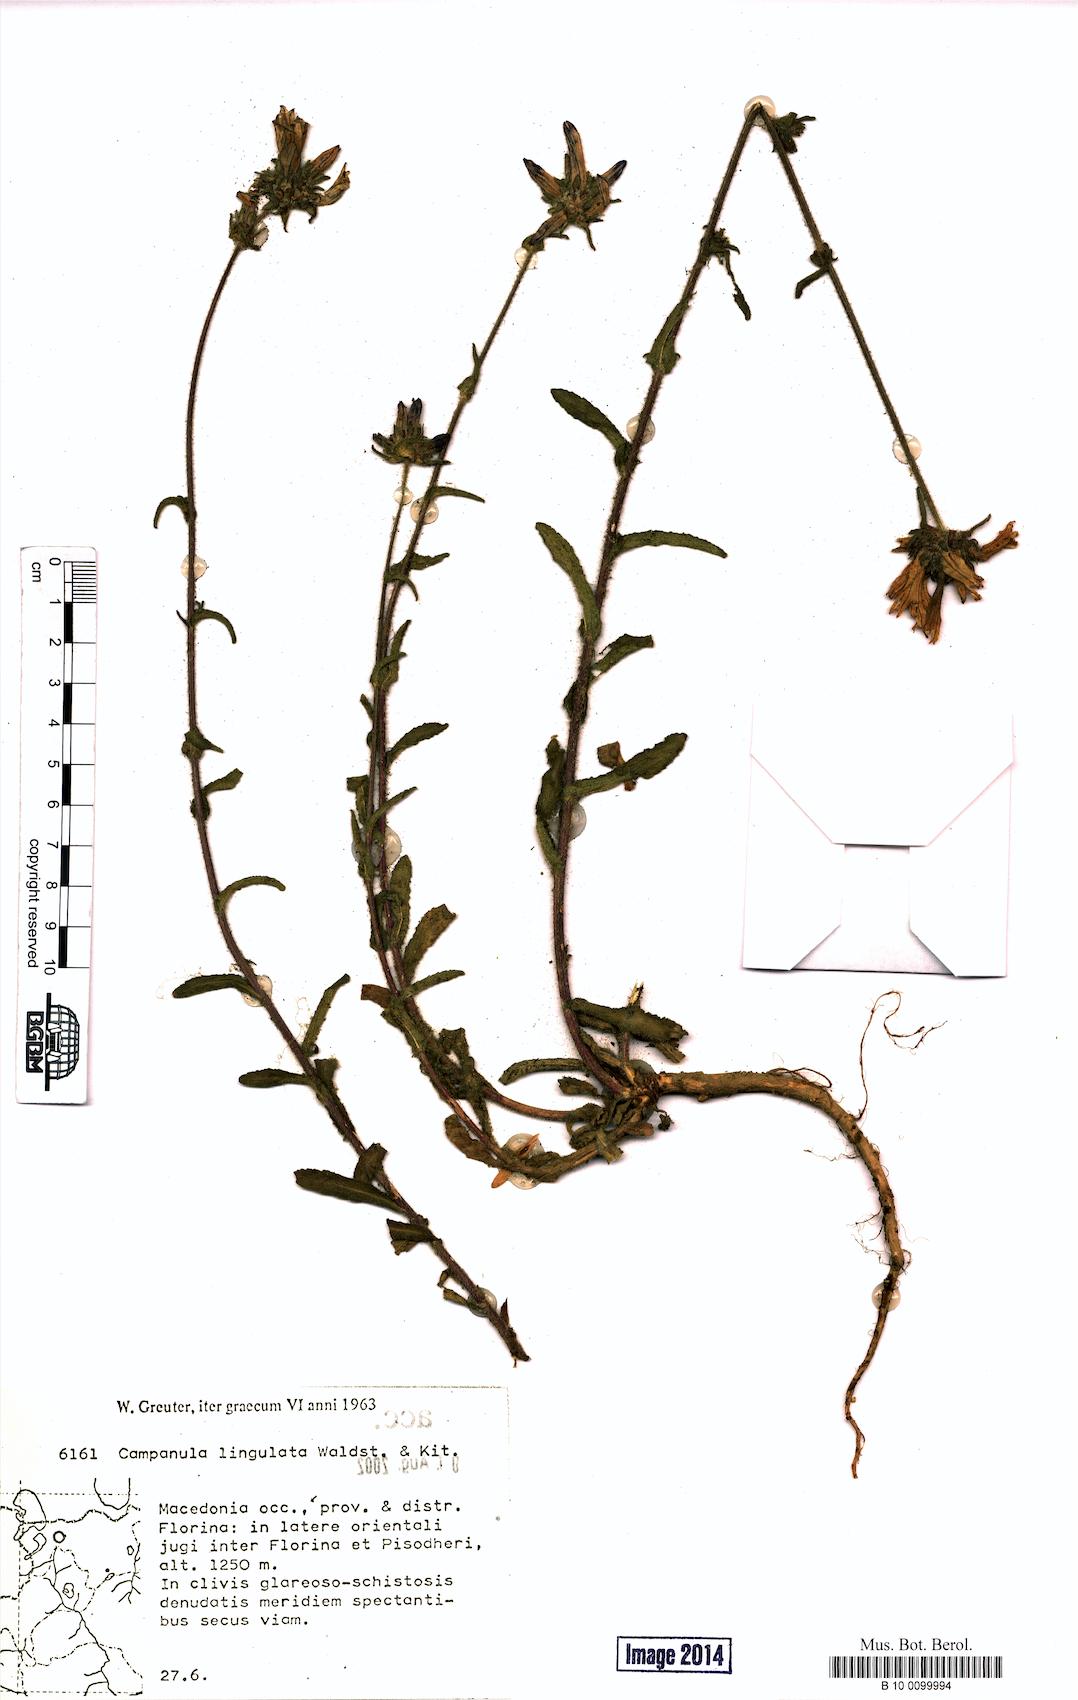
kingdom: Plantae
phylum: Tracheophyta
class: Magnoliopsida
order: Asterales
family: Campanulaceae
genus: Campanula
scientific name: Campanula lingulata
